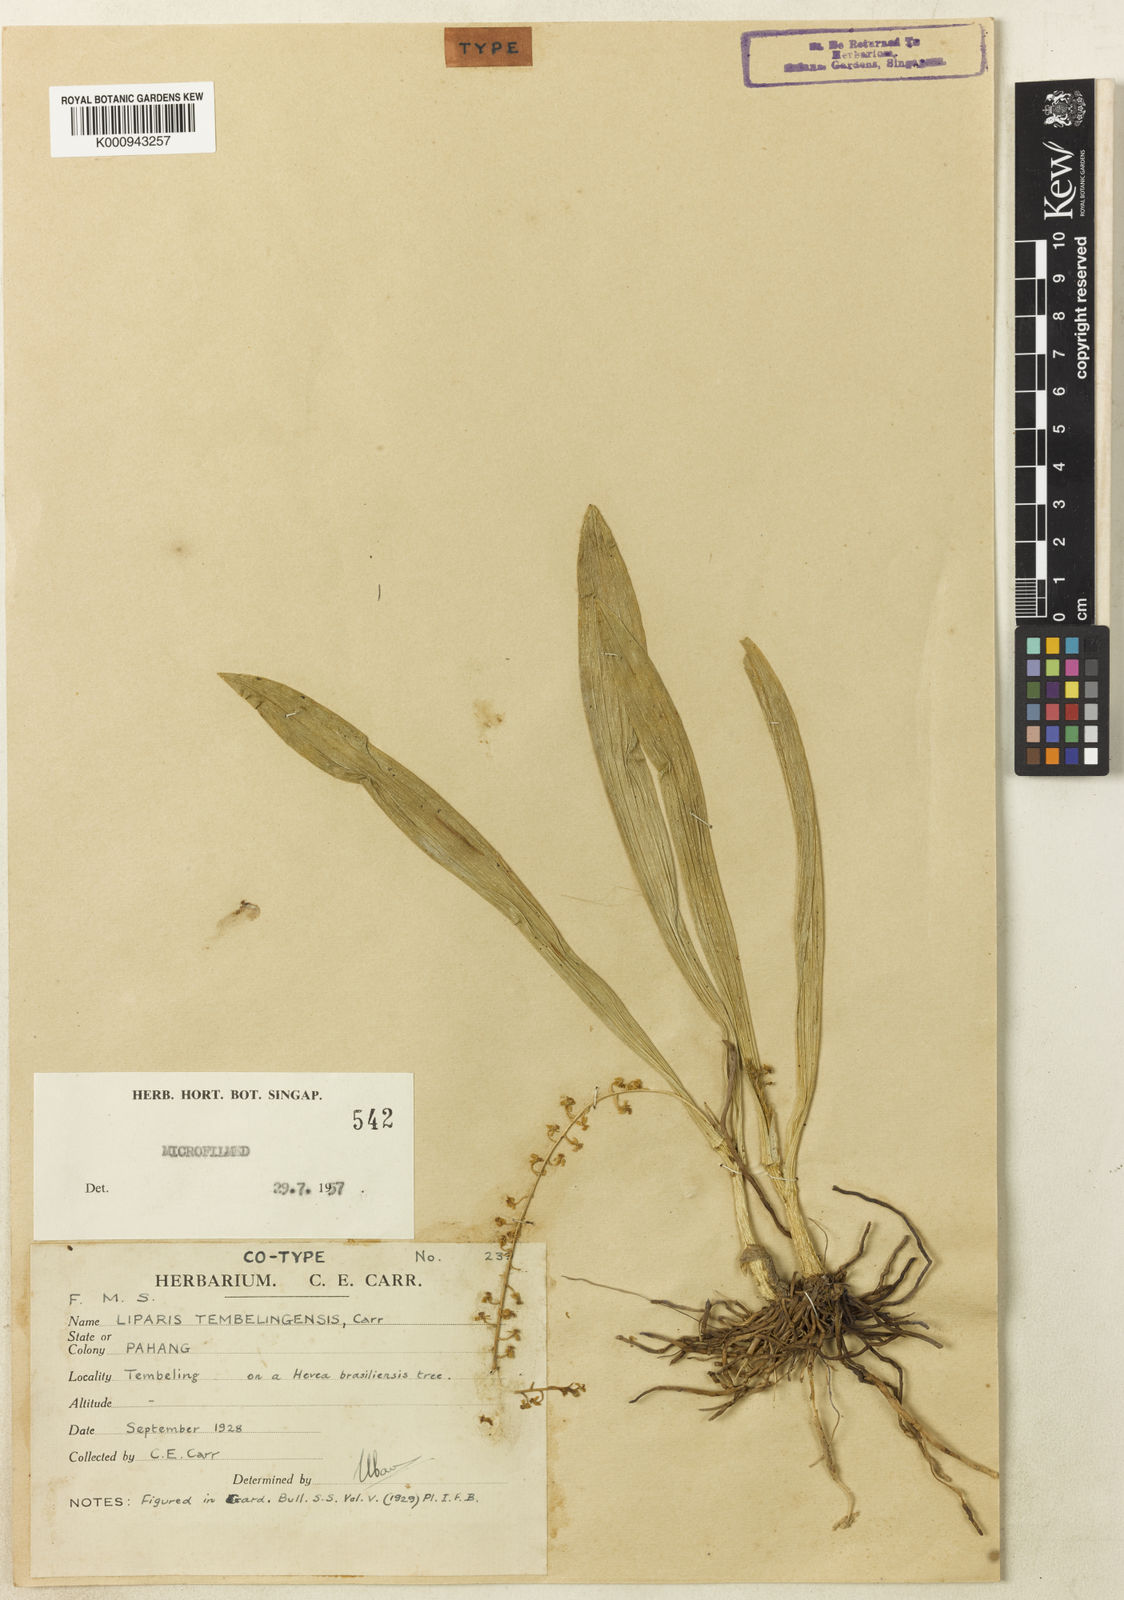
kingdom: Plantae
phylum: Tracheophyta
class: Liliopsida
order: Asparagales
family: Orchidaceae
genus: Liparis
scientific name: Liparis parviflora
